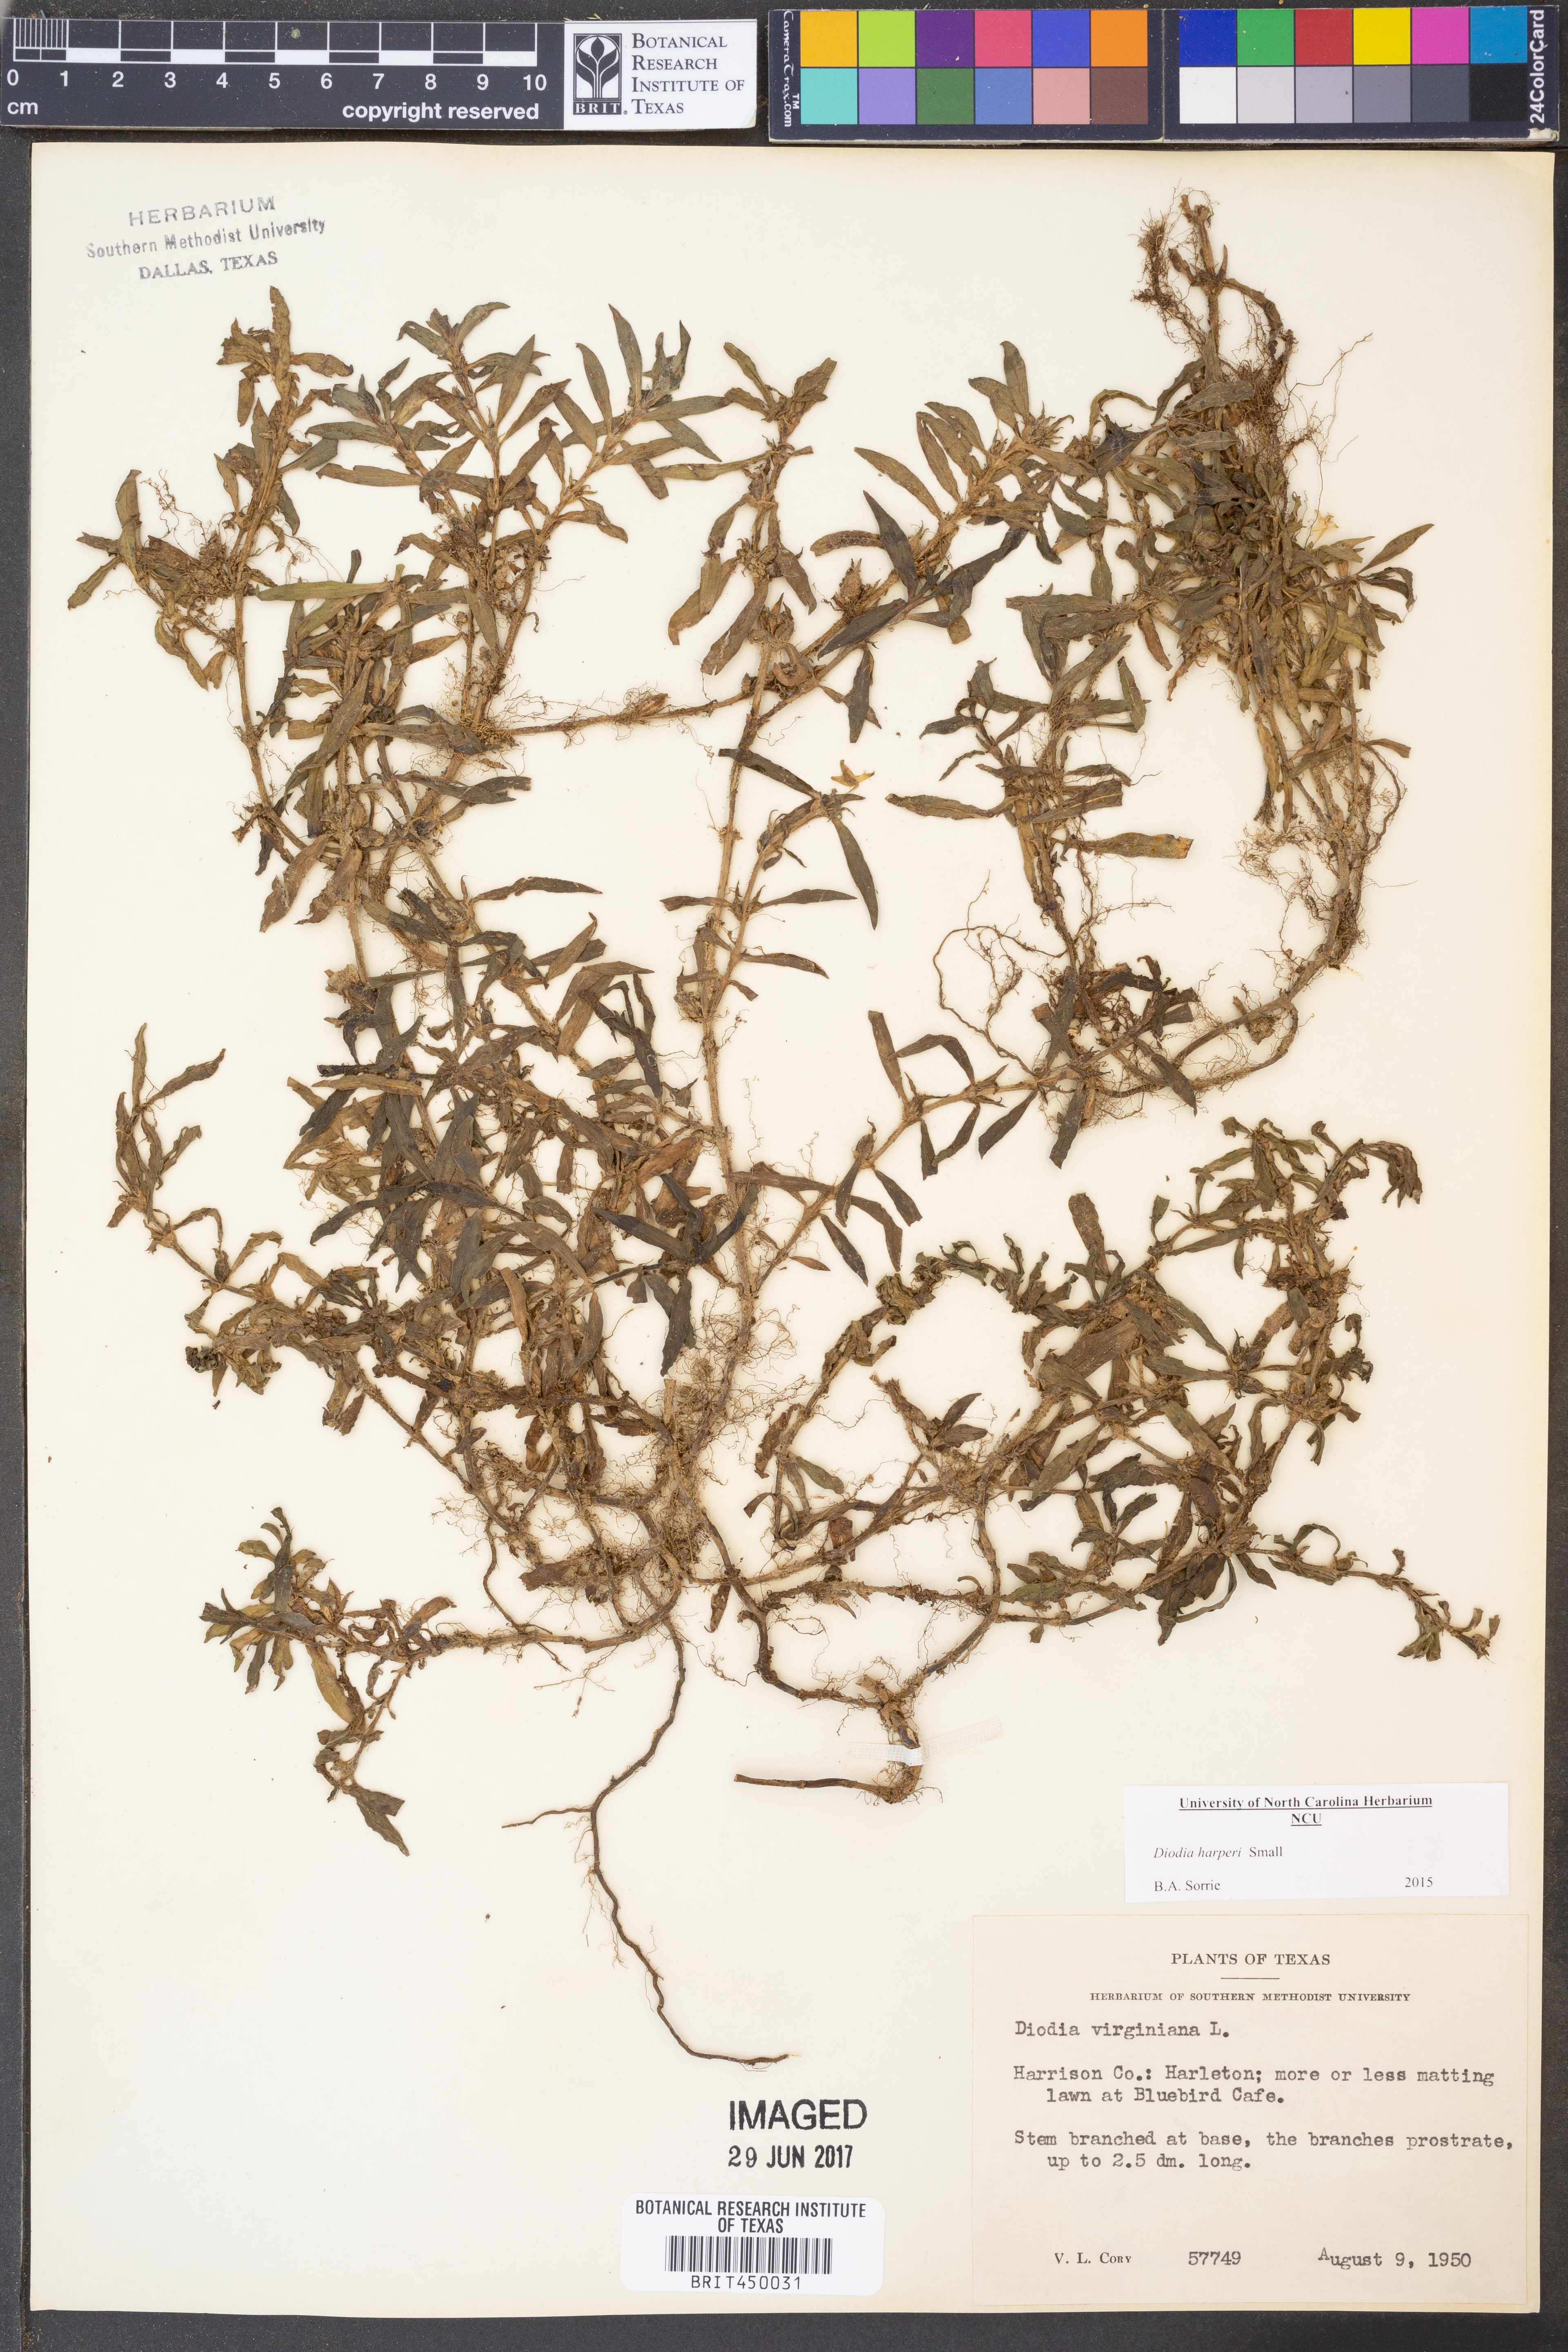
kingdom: Plantae
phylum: Tracheophyta
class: Magnoliopsida
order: Gentianales
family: Rubiaceae
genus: Diodia
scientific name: Diodia virginiana
